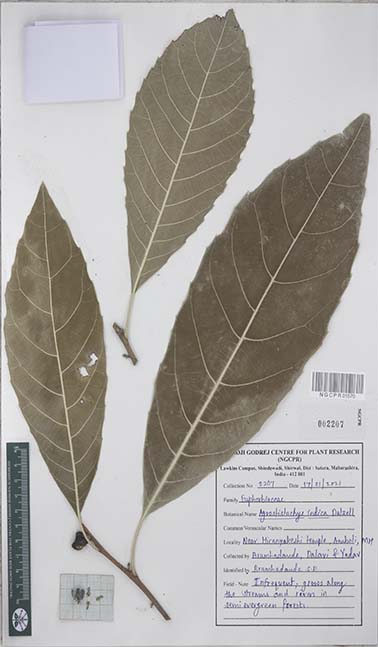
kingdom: Plantae
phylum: Tracheophyta
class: Magnoliopsida
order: Malpighiales
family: Euphorbiaceae
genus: Agrostistachys
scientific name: Agrostistachys indica
